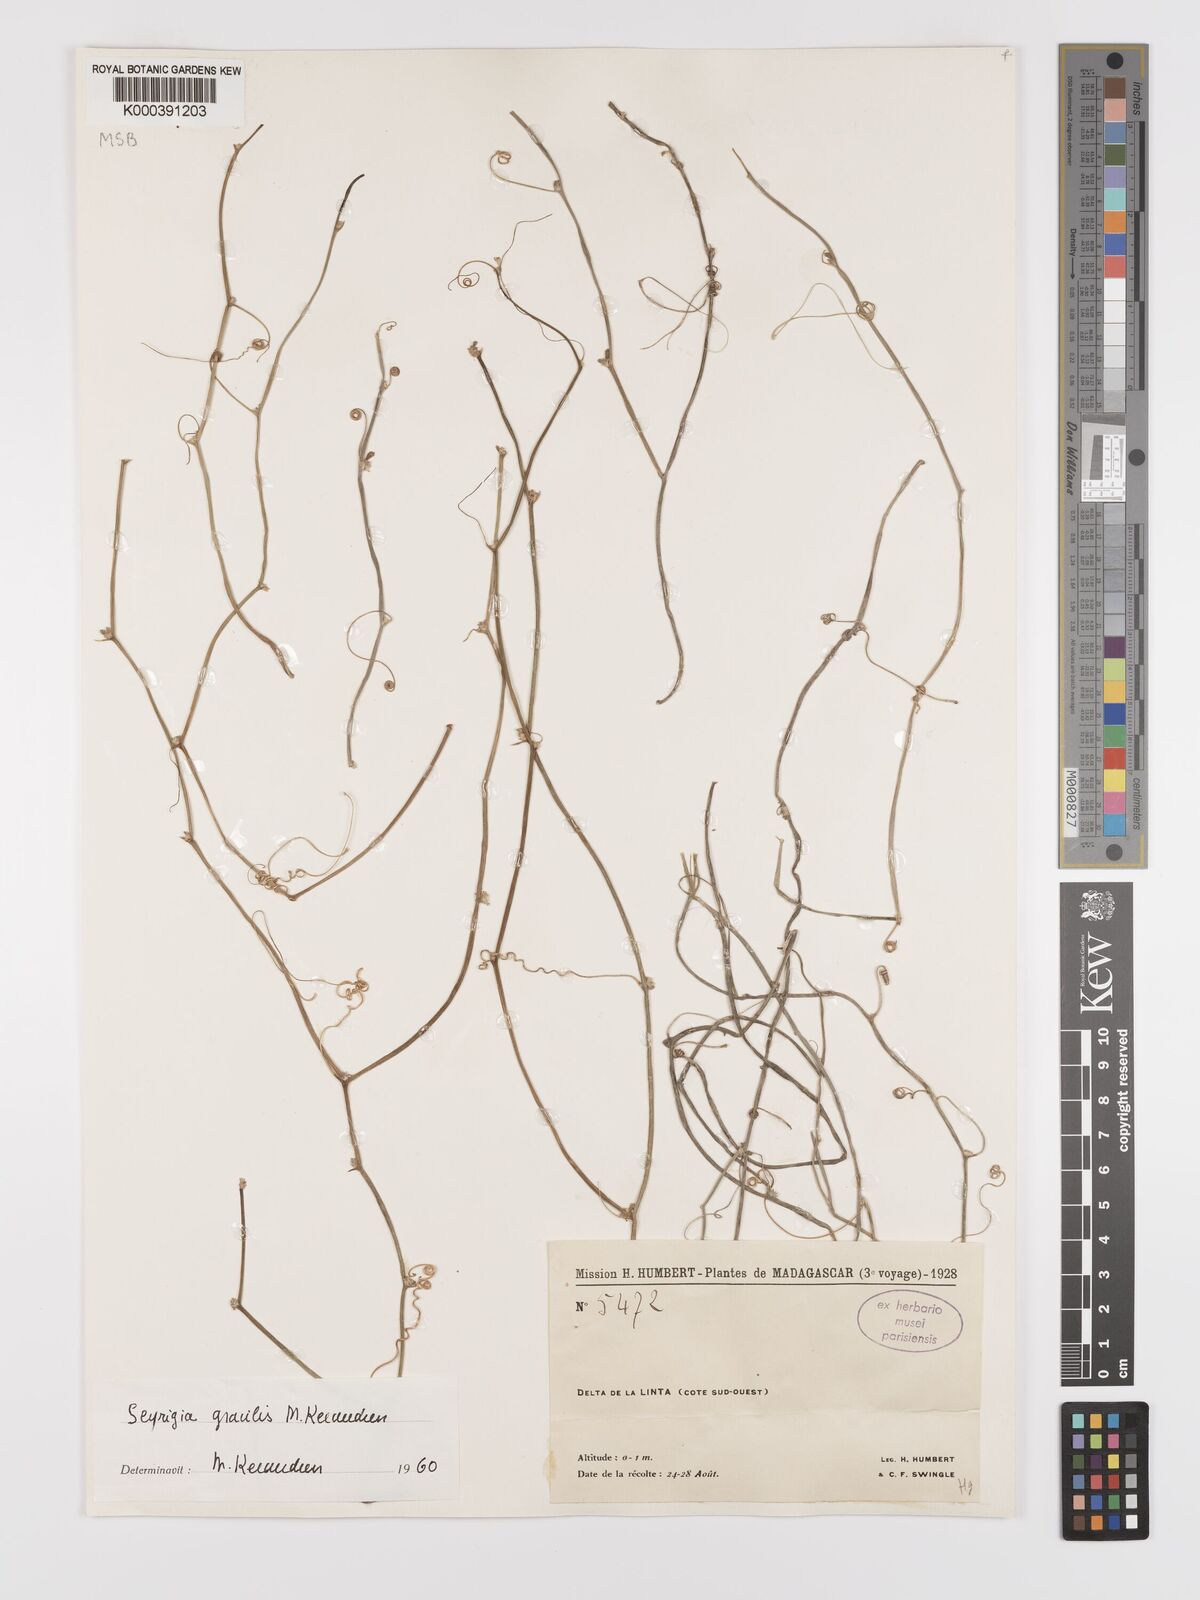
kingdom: Plantae
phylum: Tracheophyta
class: Magnoliopsida
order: Cucurbitales
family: Cucurbitaceae
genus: Seyrigia
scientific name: Seyrigia gracilis
